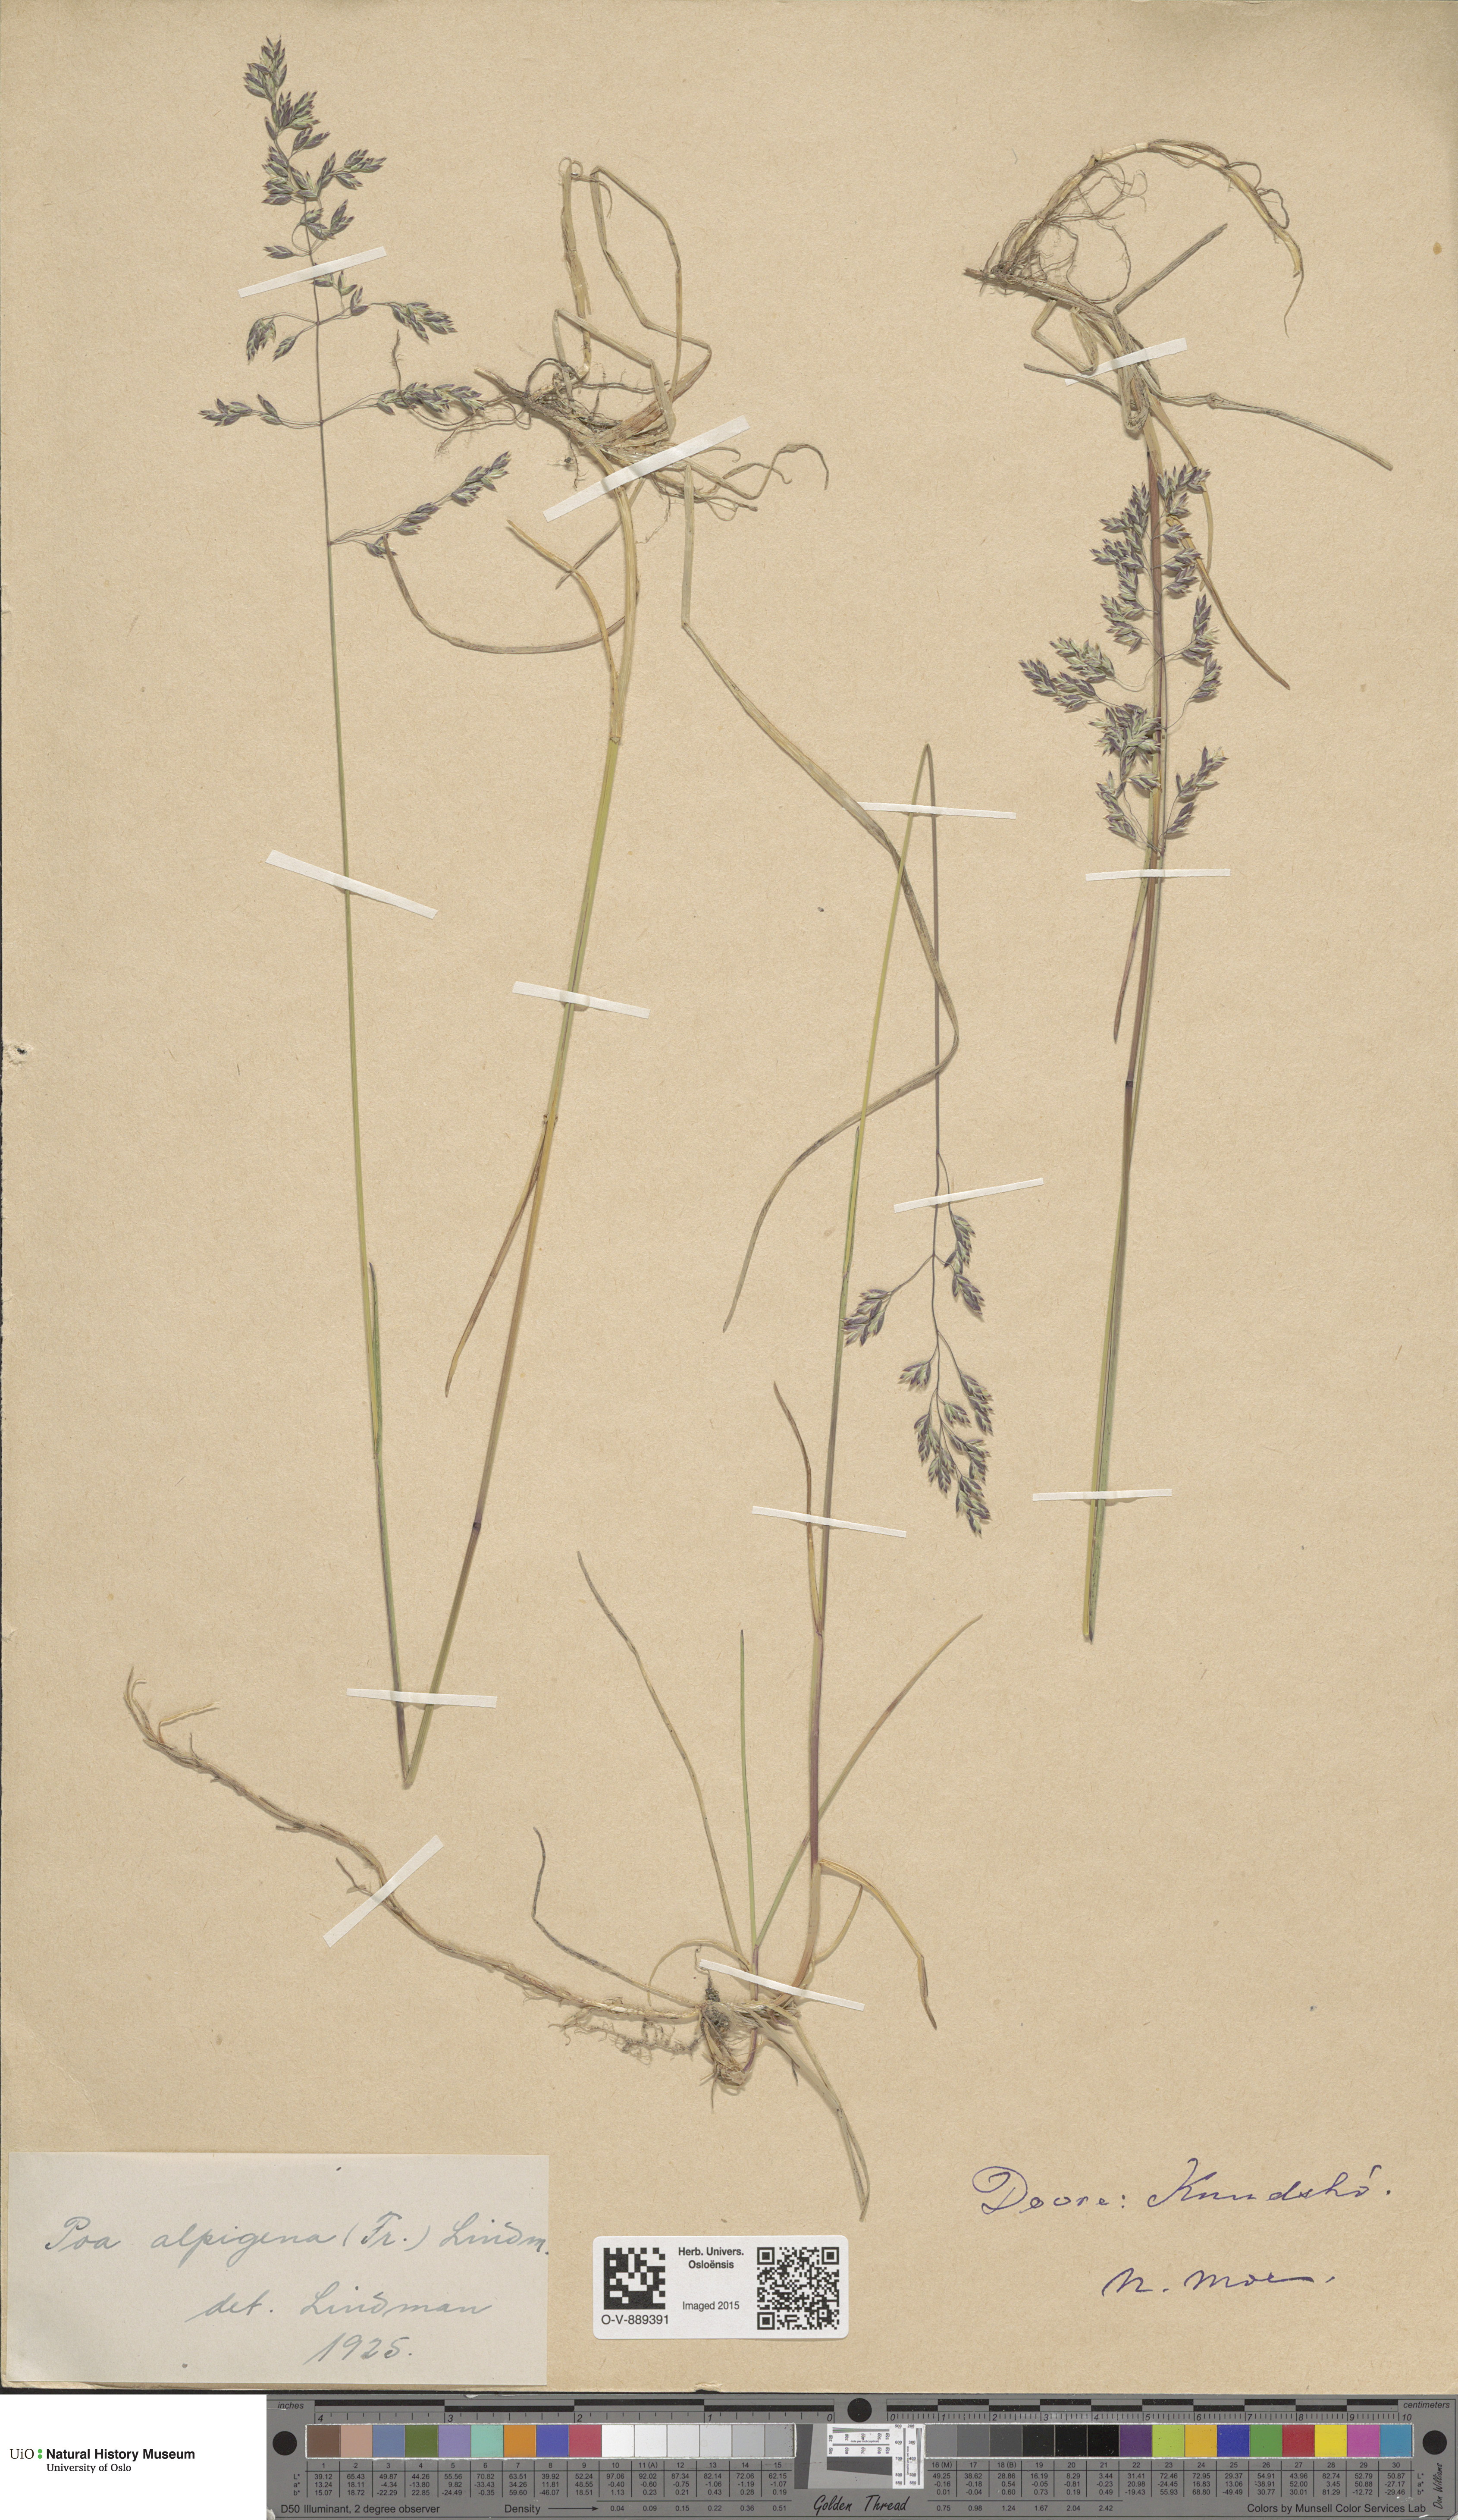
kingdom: Plantae
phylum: Tracheophyta
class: Liliopsida
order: Poales
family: Poaceae
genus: Poa
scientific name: Poa alpigena
